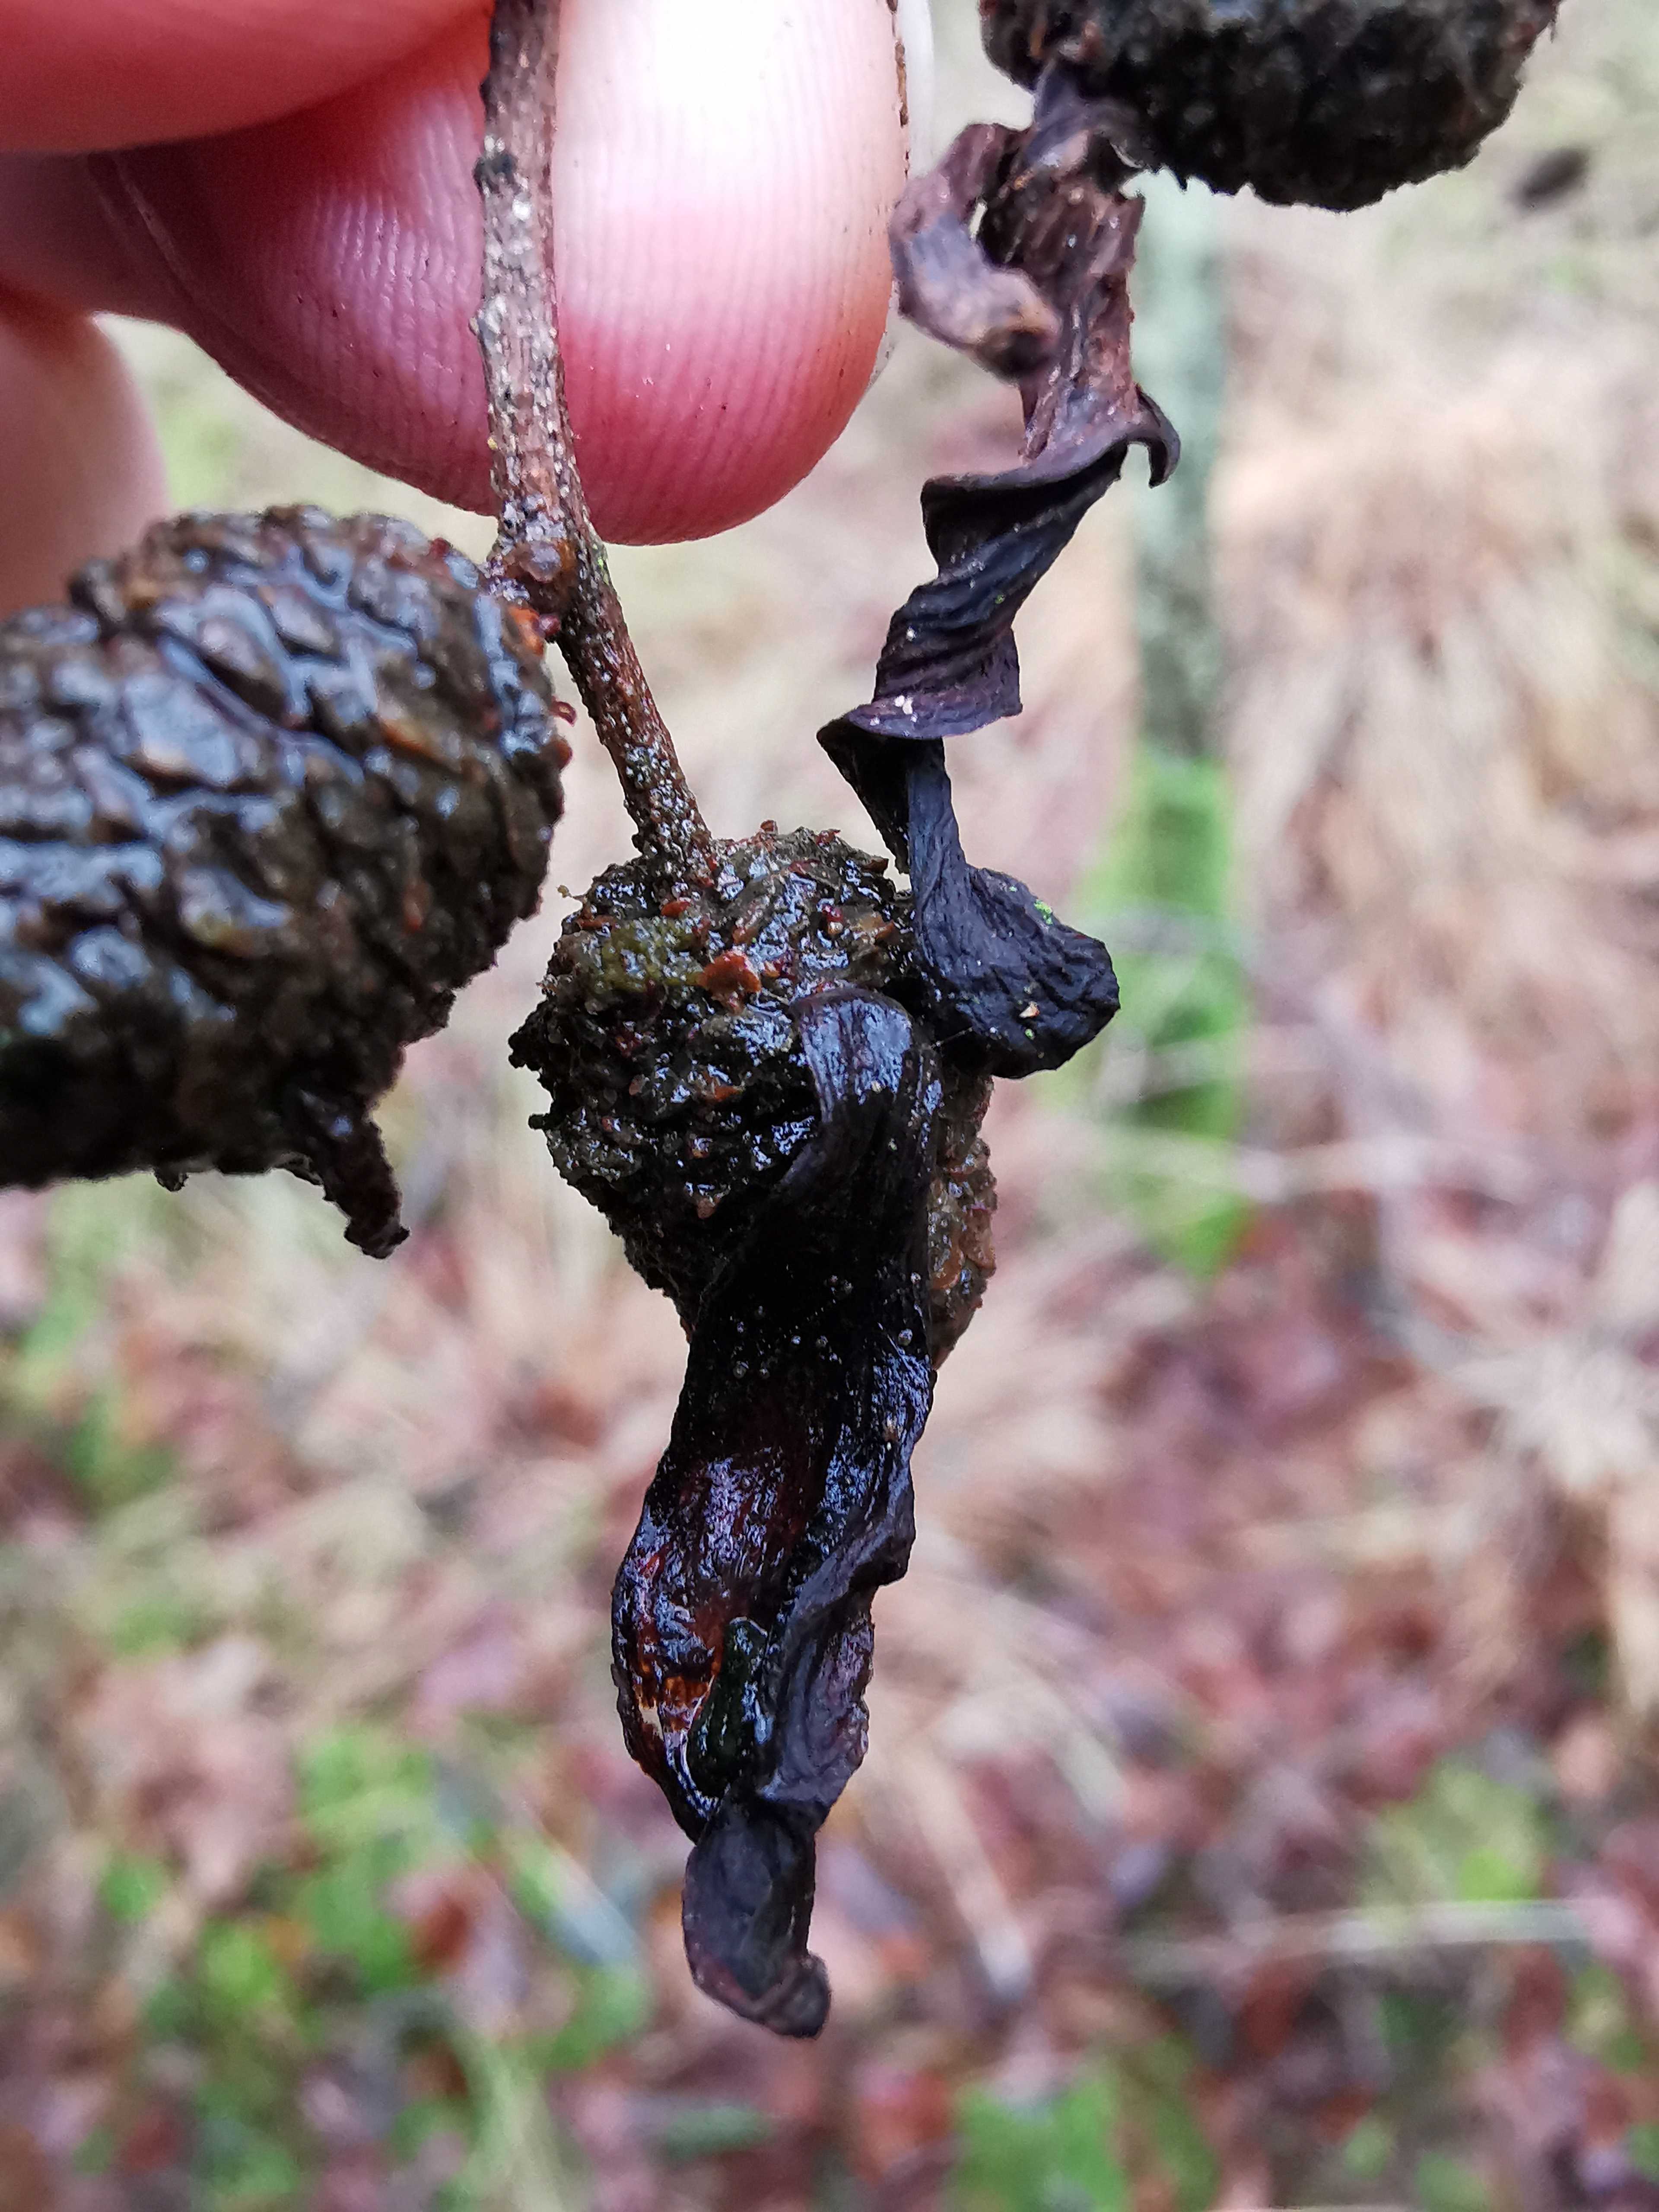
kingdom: Fungi
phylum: Ascomycota
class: Taphrinomycetes
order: Taphrinales
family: Taphrinaceae
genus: Taphrina
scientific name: Taphrina alni
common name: Alder tongue
